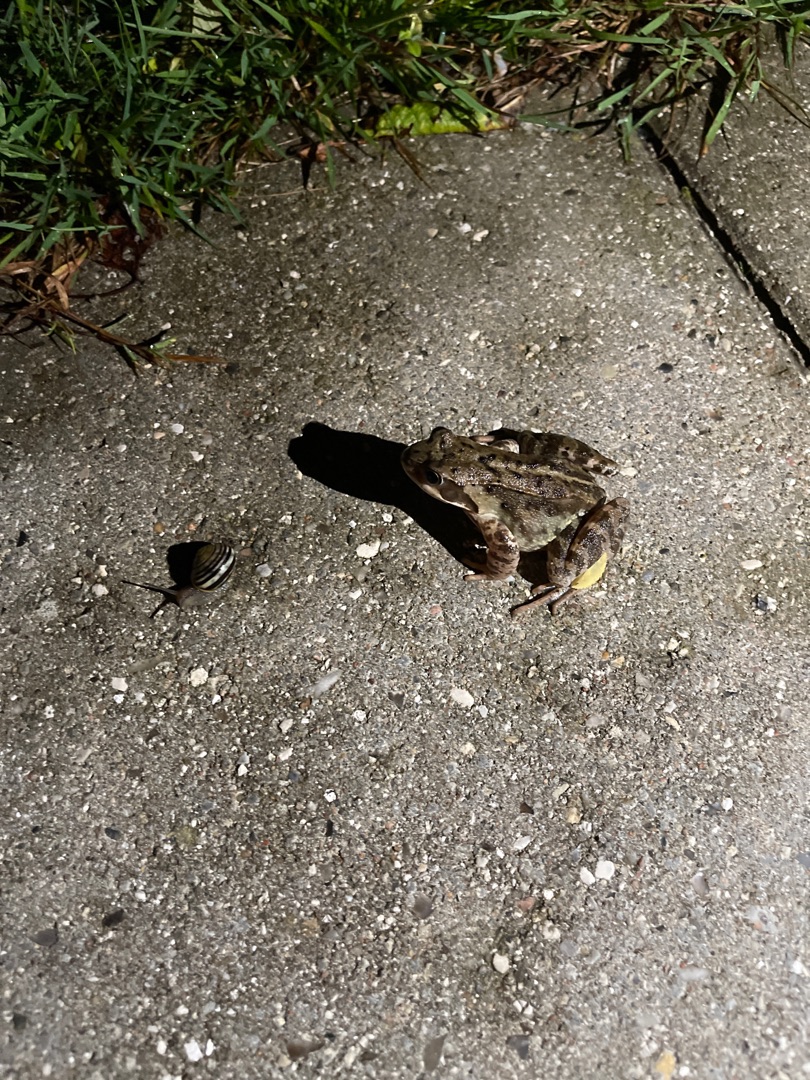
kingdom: Animalia
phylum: Chordata
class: Amphibia
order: Anura
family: Ranidae
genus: Rana
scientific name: Rana temporaria
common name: Butsnudet frø
